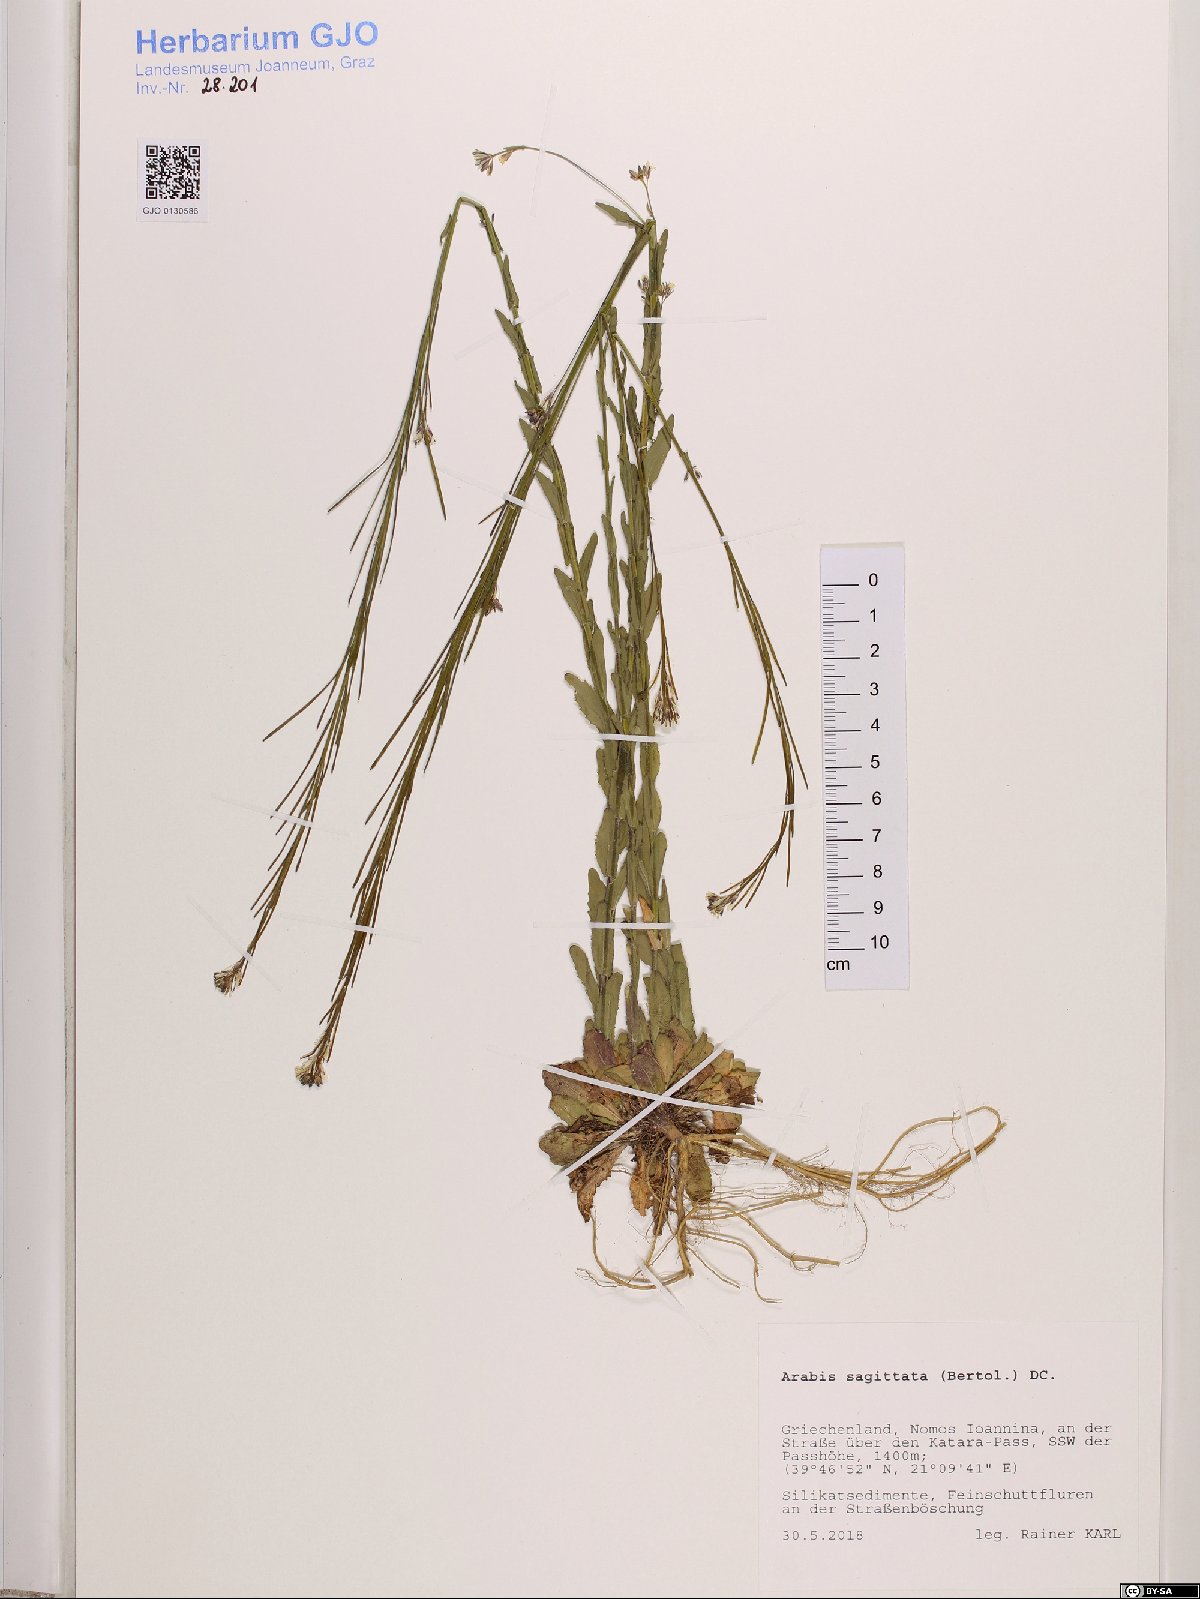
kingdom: Plantae
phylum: Tracheophyta
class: Magnoliopsida
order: Brassicales
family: Brassicaceae
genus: Arabis
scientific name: Arabis sagittata
